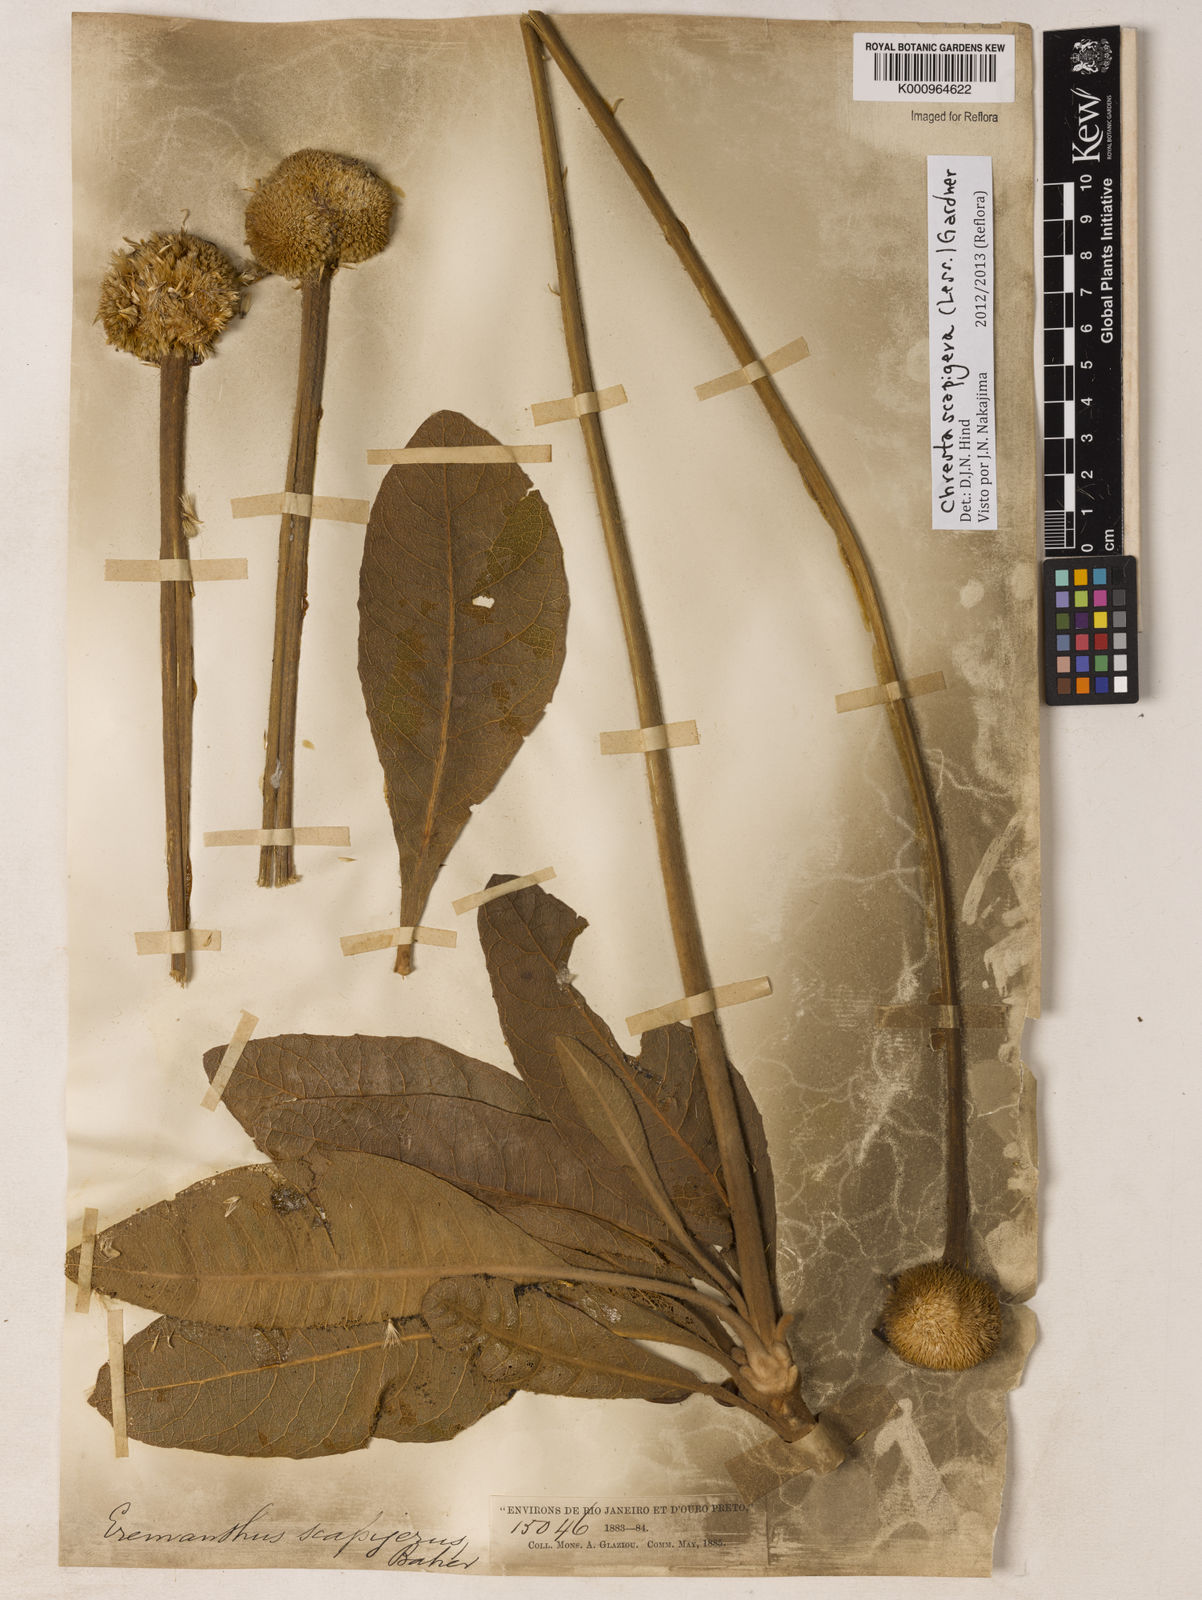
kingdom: Plantae
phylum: Tracheophyta
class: Magnoliopsida
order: Asterales
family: Asteraceae
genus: Chresta
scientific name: Chresta scapigera
